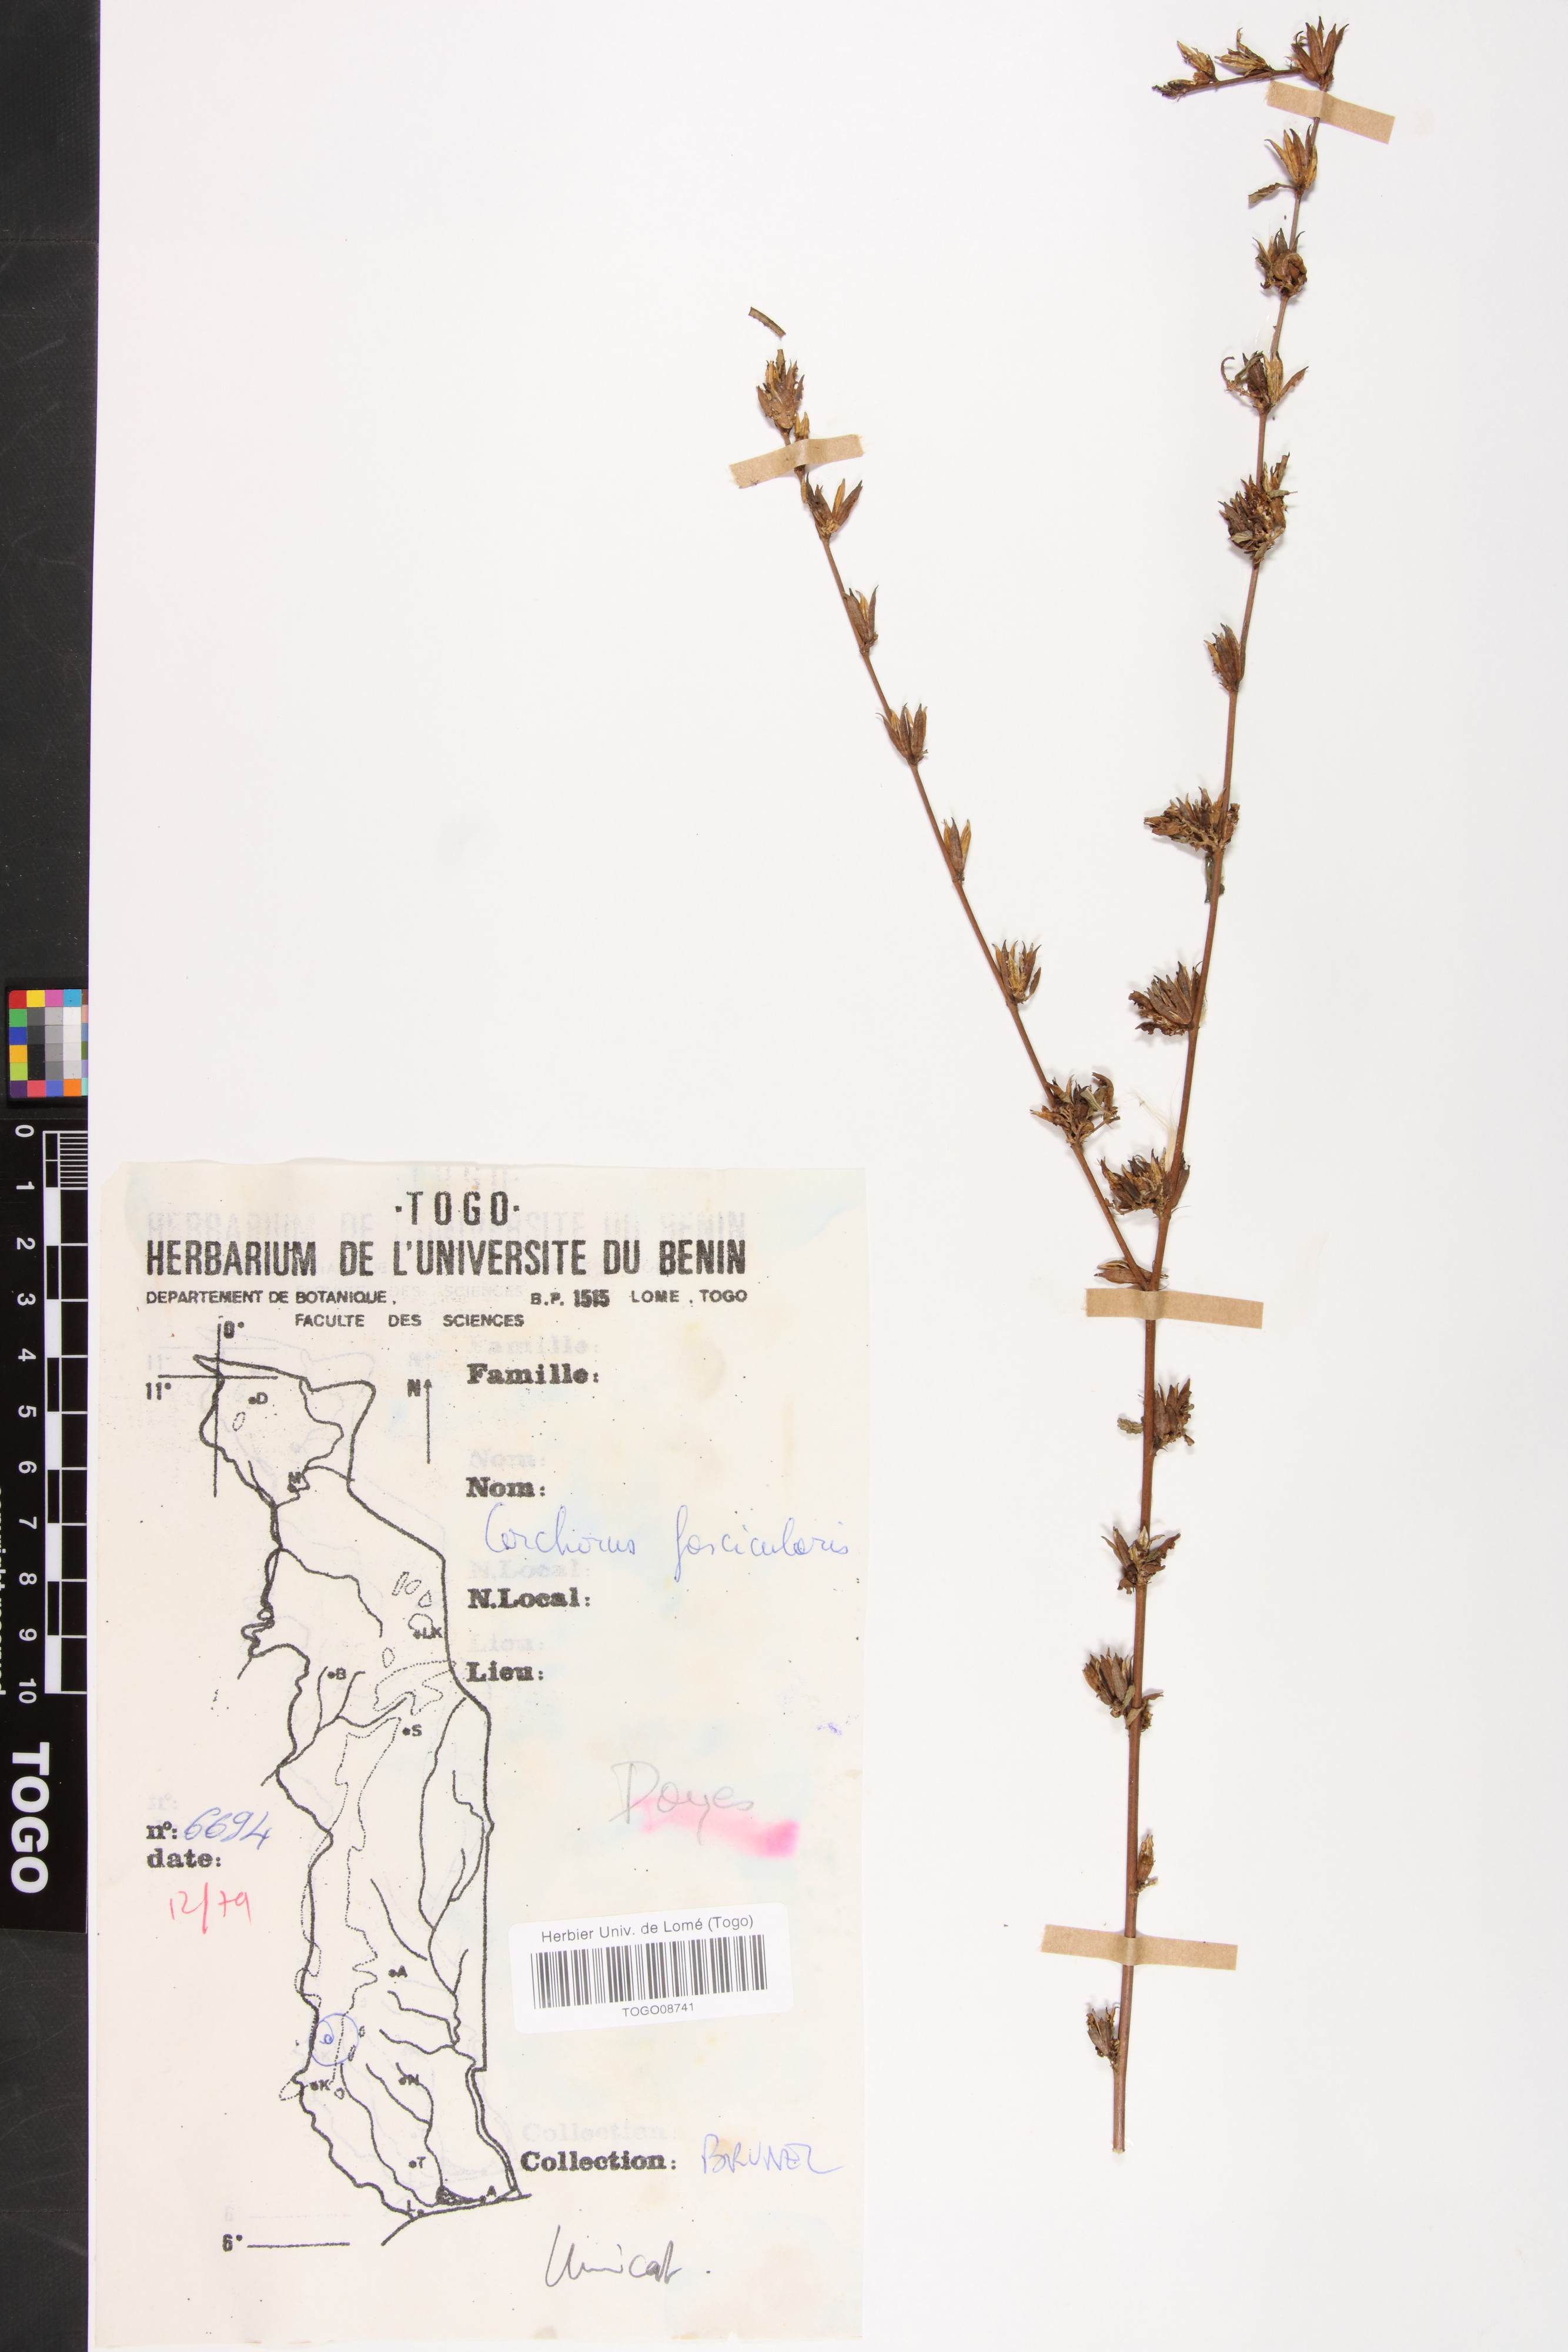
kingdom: Plantae
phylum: Tracheophyta
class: Magnoliopsida
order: Malvales
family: Malvaceae
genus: Corchorus
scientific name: Corchorus fascicularis
